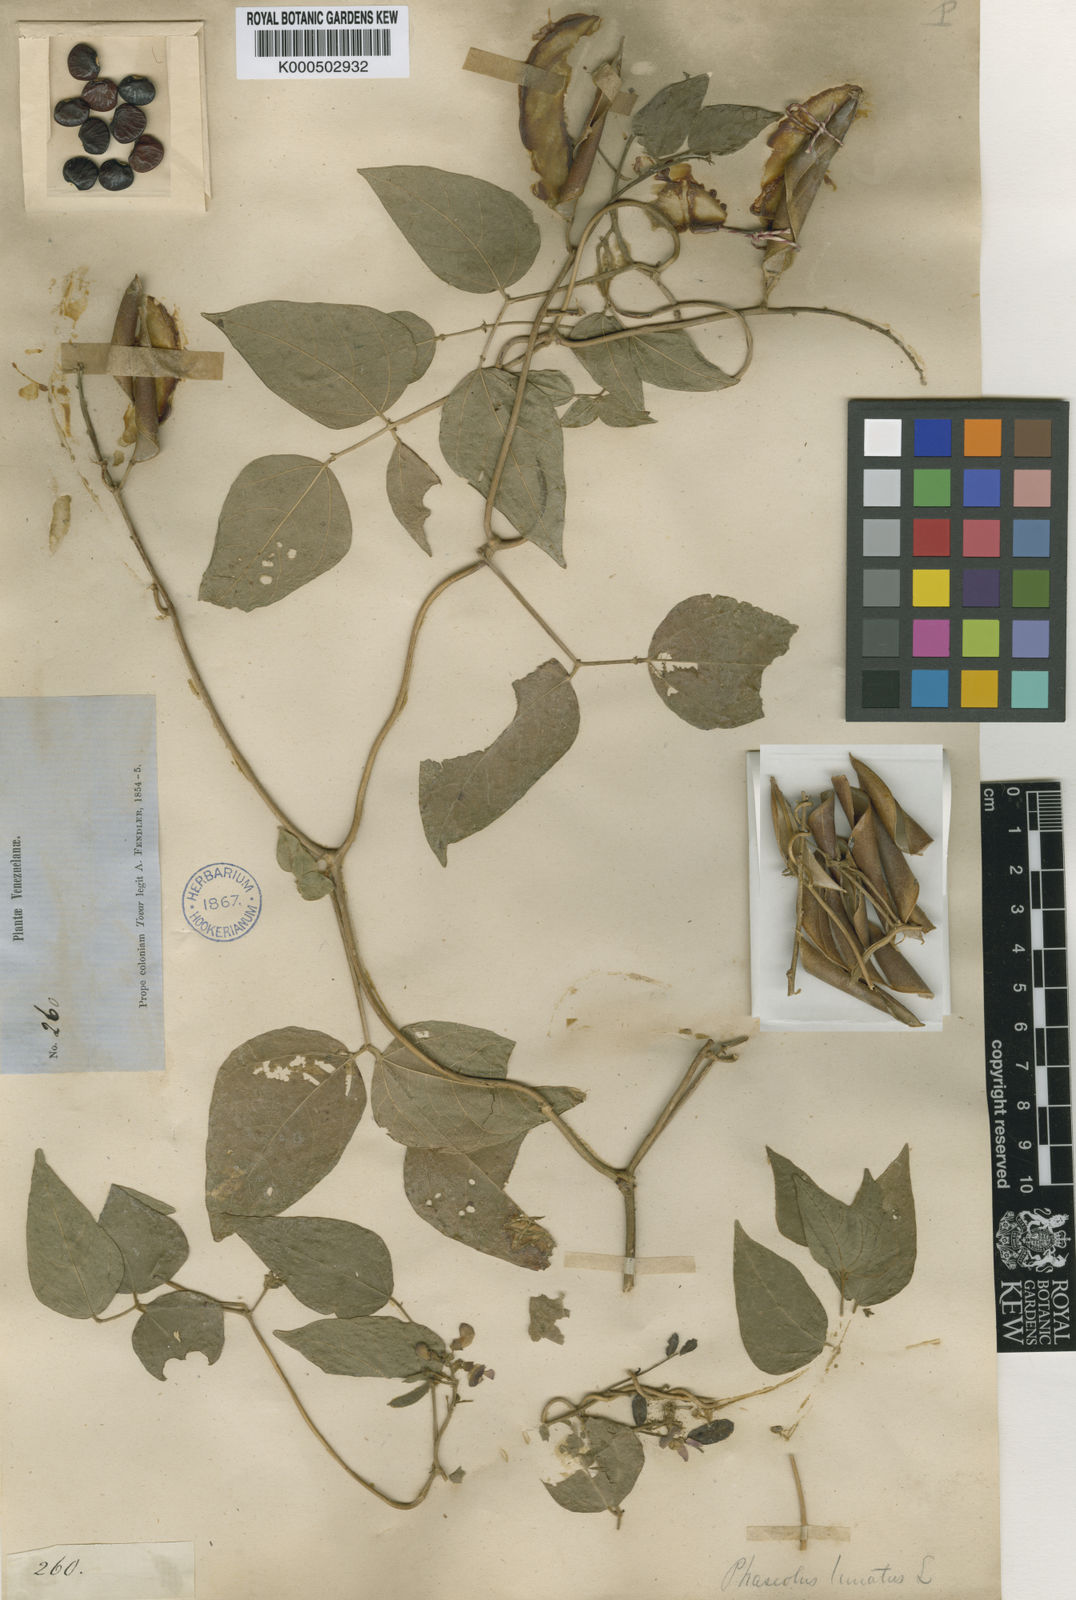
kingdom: Plantae
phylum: Tracheophyta
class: Magnoliopsida
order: Fabales
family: Fabaceae
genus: Phaseolus
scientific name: Phaseolus lunatus
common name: Sieva bean
